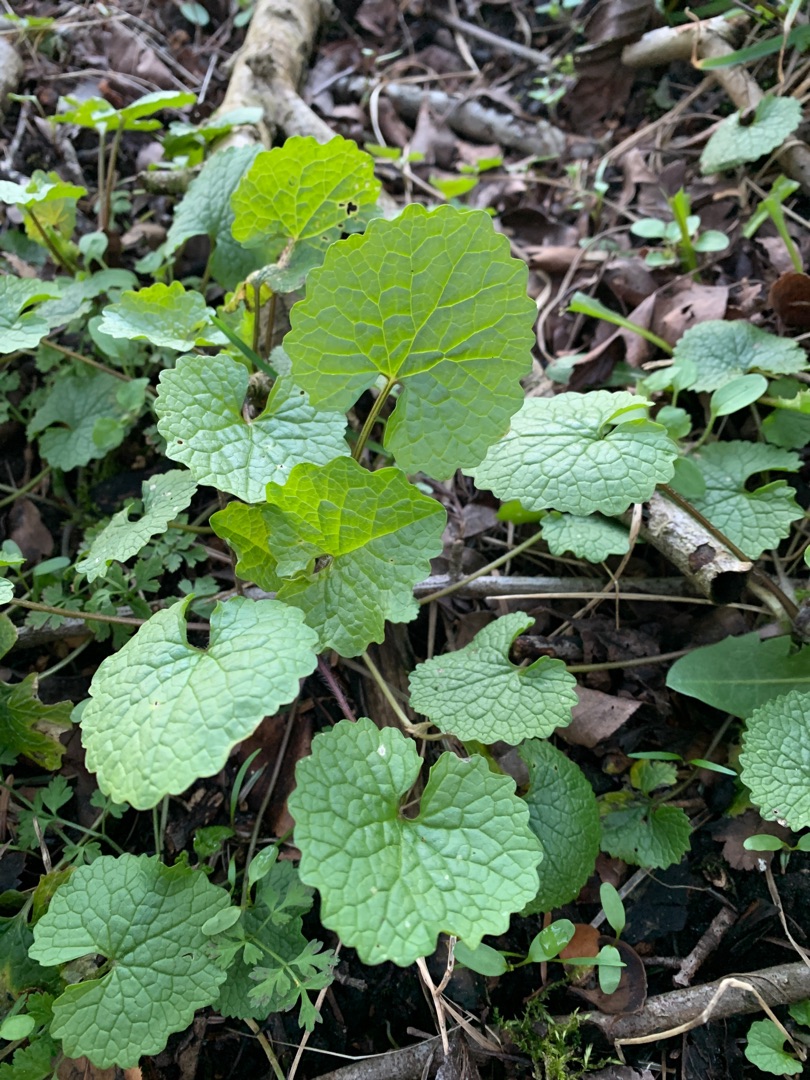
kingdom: Plantae
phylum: Tracheophyta
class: Magnoliopsida
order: Brassicales
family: Brassicaceae
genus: Alliaria
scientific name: Alliaria petiolata
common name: Løgkarse
